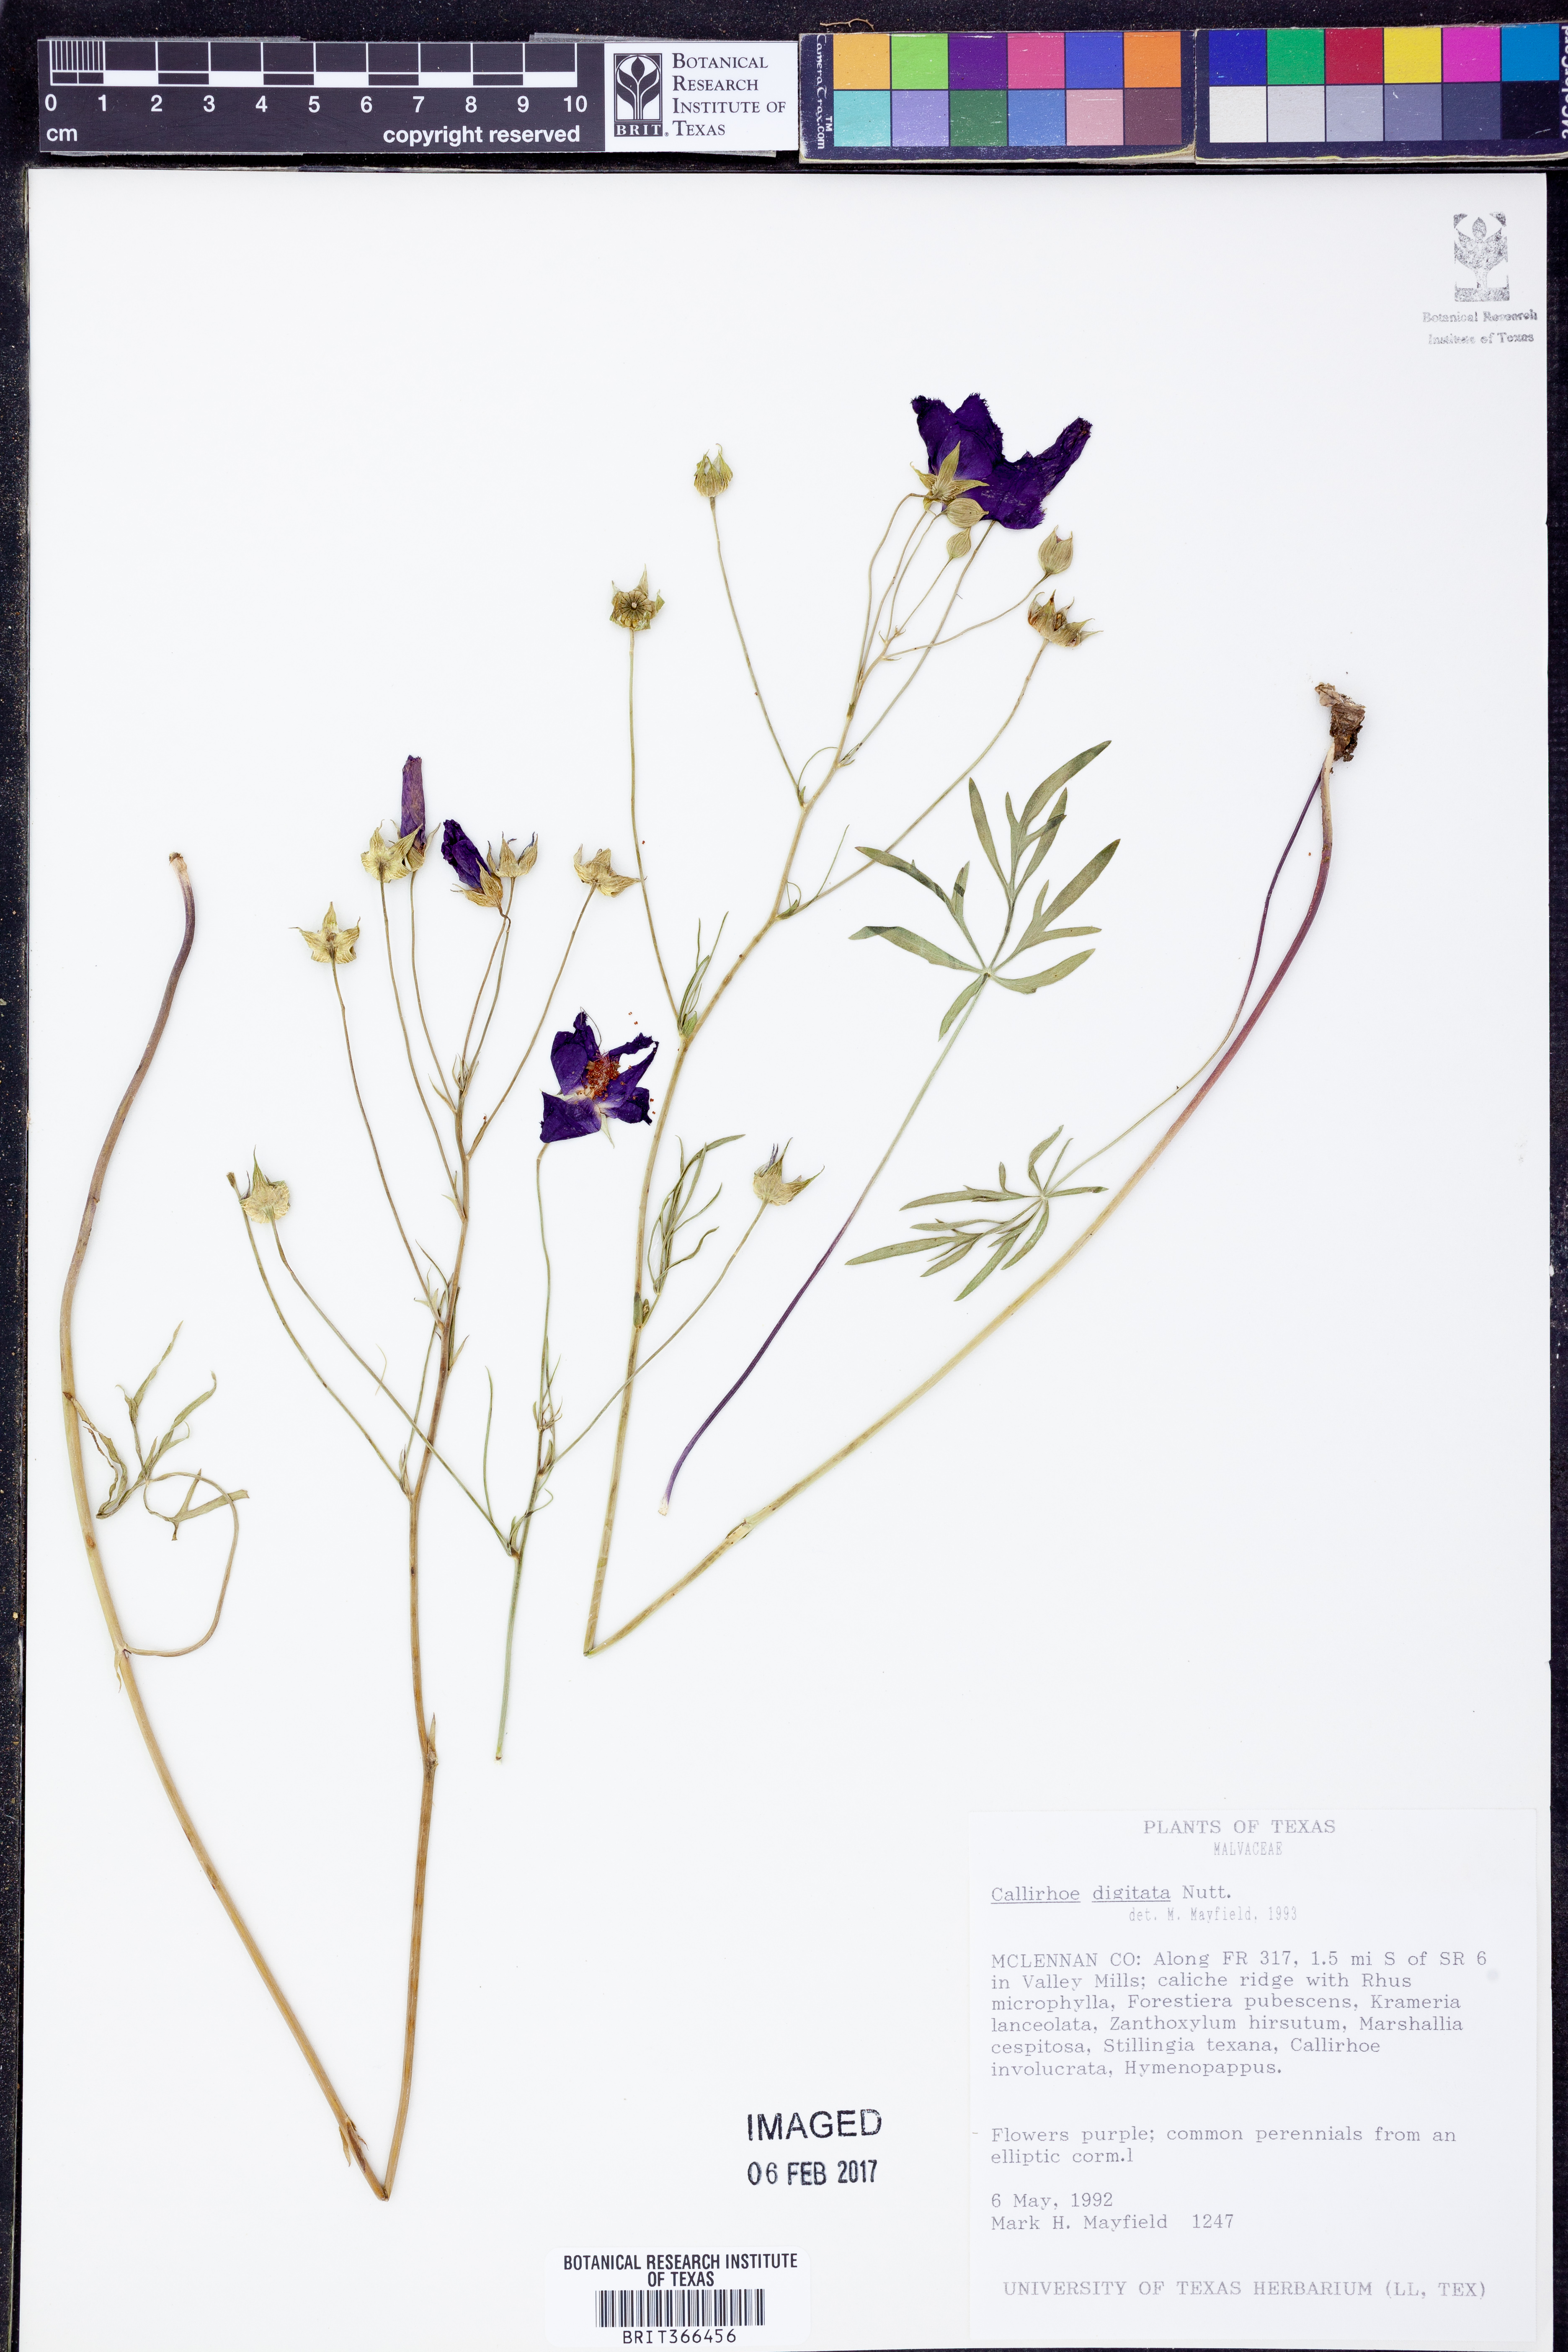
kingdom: Plantae
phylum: Tracheophyta
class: Magnoliopsida
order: Malvales
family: Malvaceae
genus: Callirhoe
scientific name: Callirhoe digitata
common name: Finger poppy-mallow
